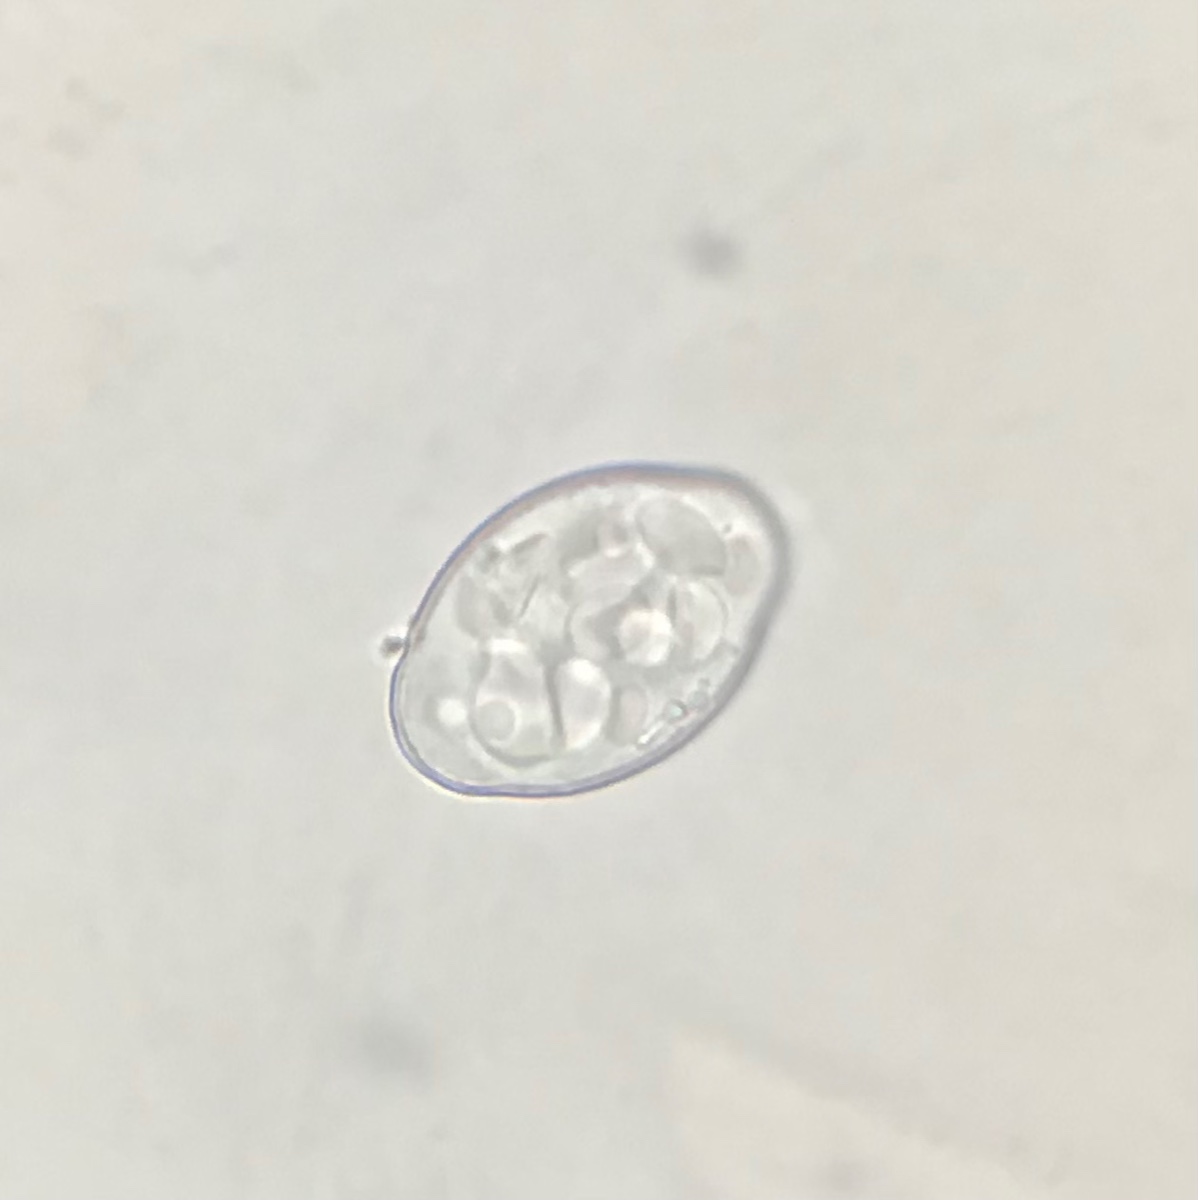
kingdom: Fungi
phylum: Ascomycota
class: Leotiomycetes
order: Helotiales
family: Erysiphaceae
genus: Podosphaera
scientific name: Podosphaera aphanis
